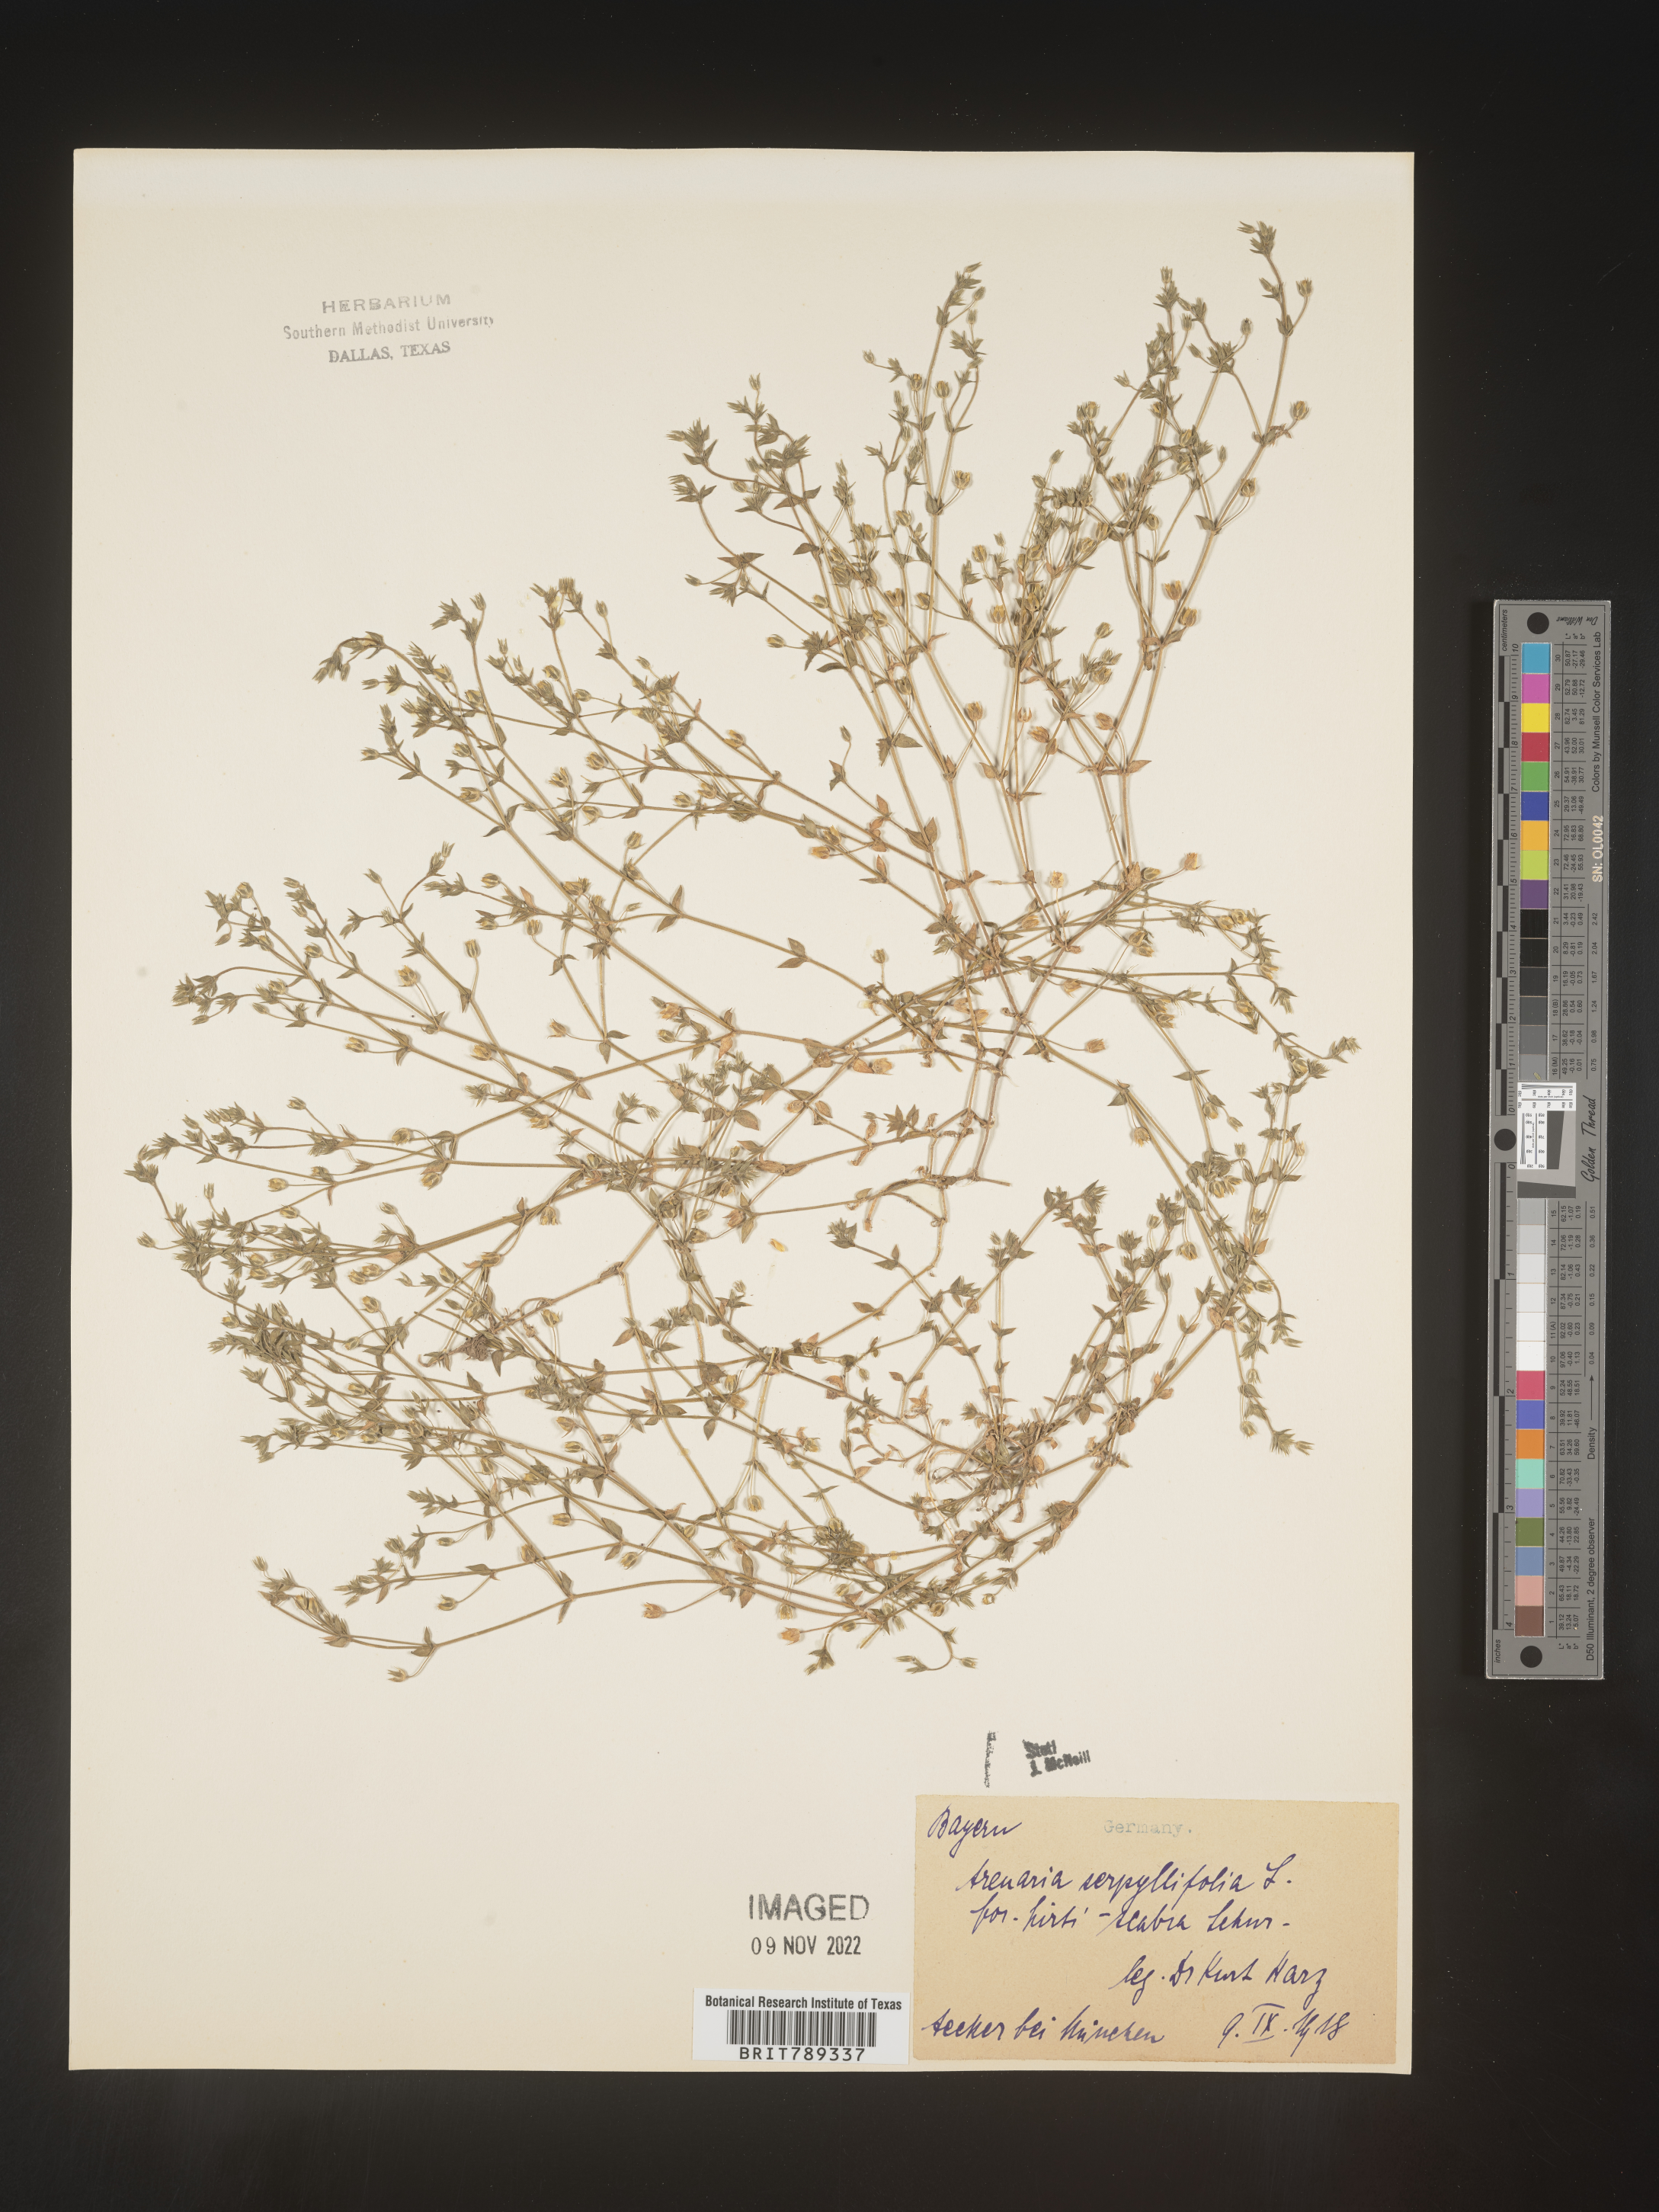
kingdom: Plantae
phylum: Tracheophyta
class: Magnoliopsida
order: Caryophyllales
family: Caryophyllaceae
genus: Arenaria
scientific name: Arenaria
